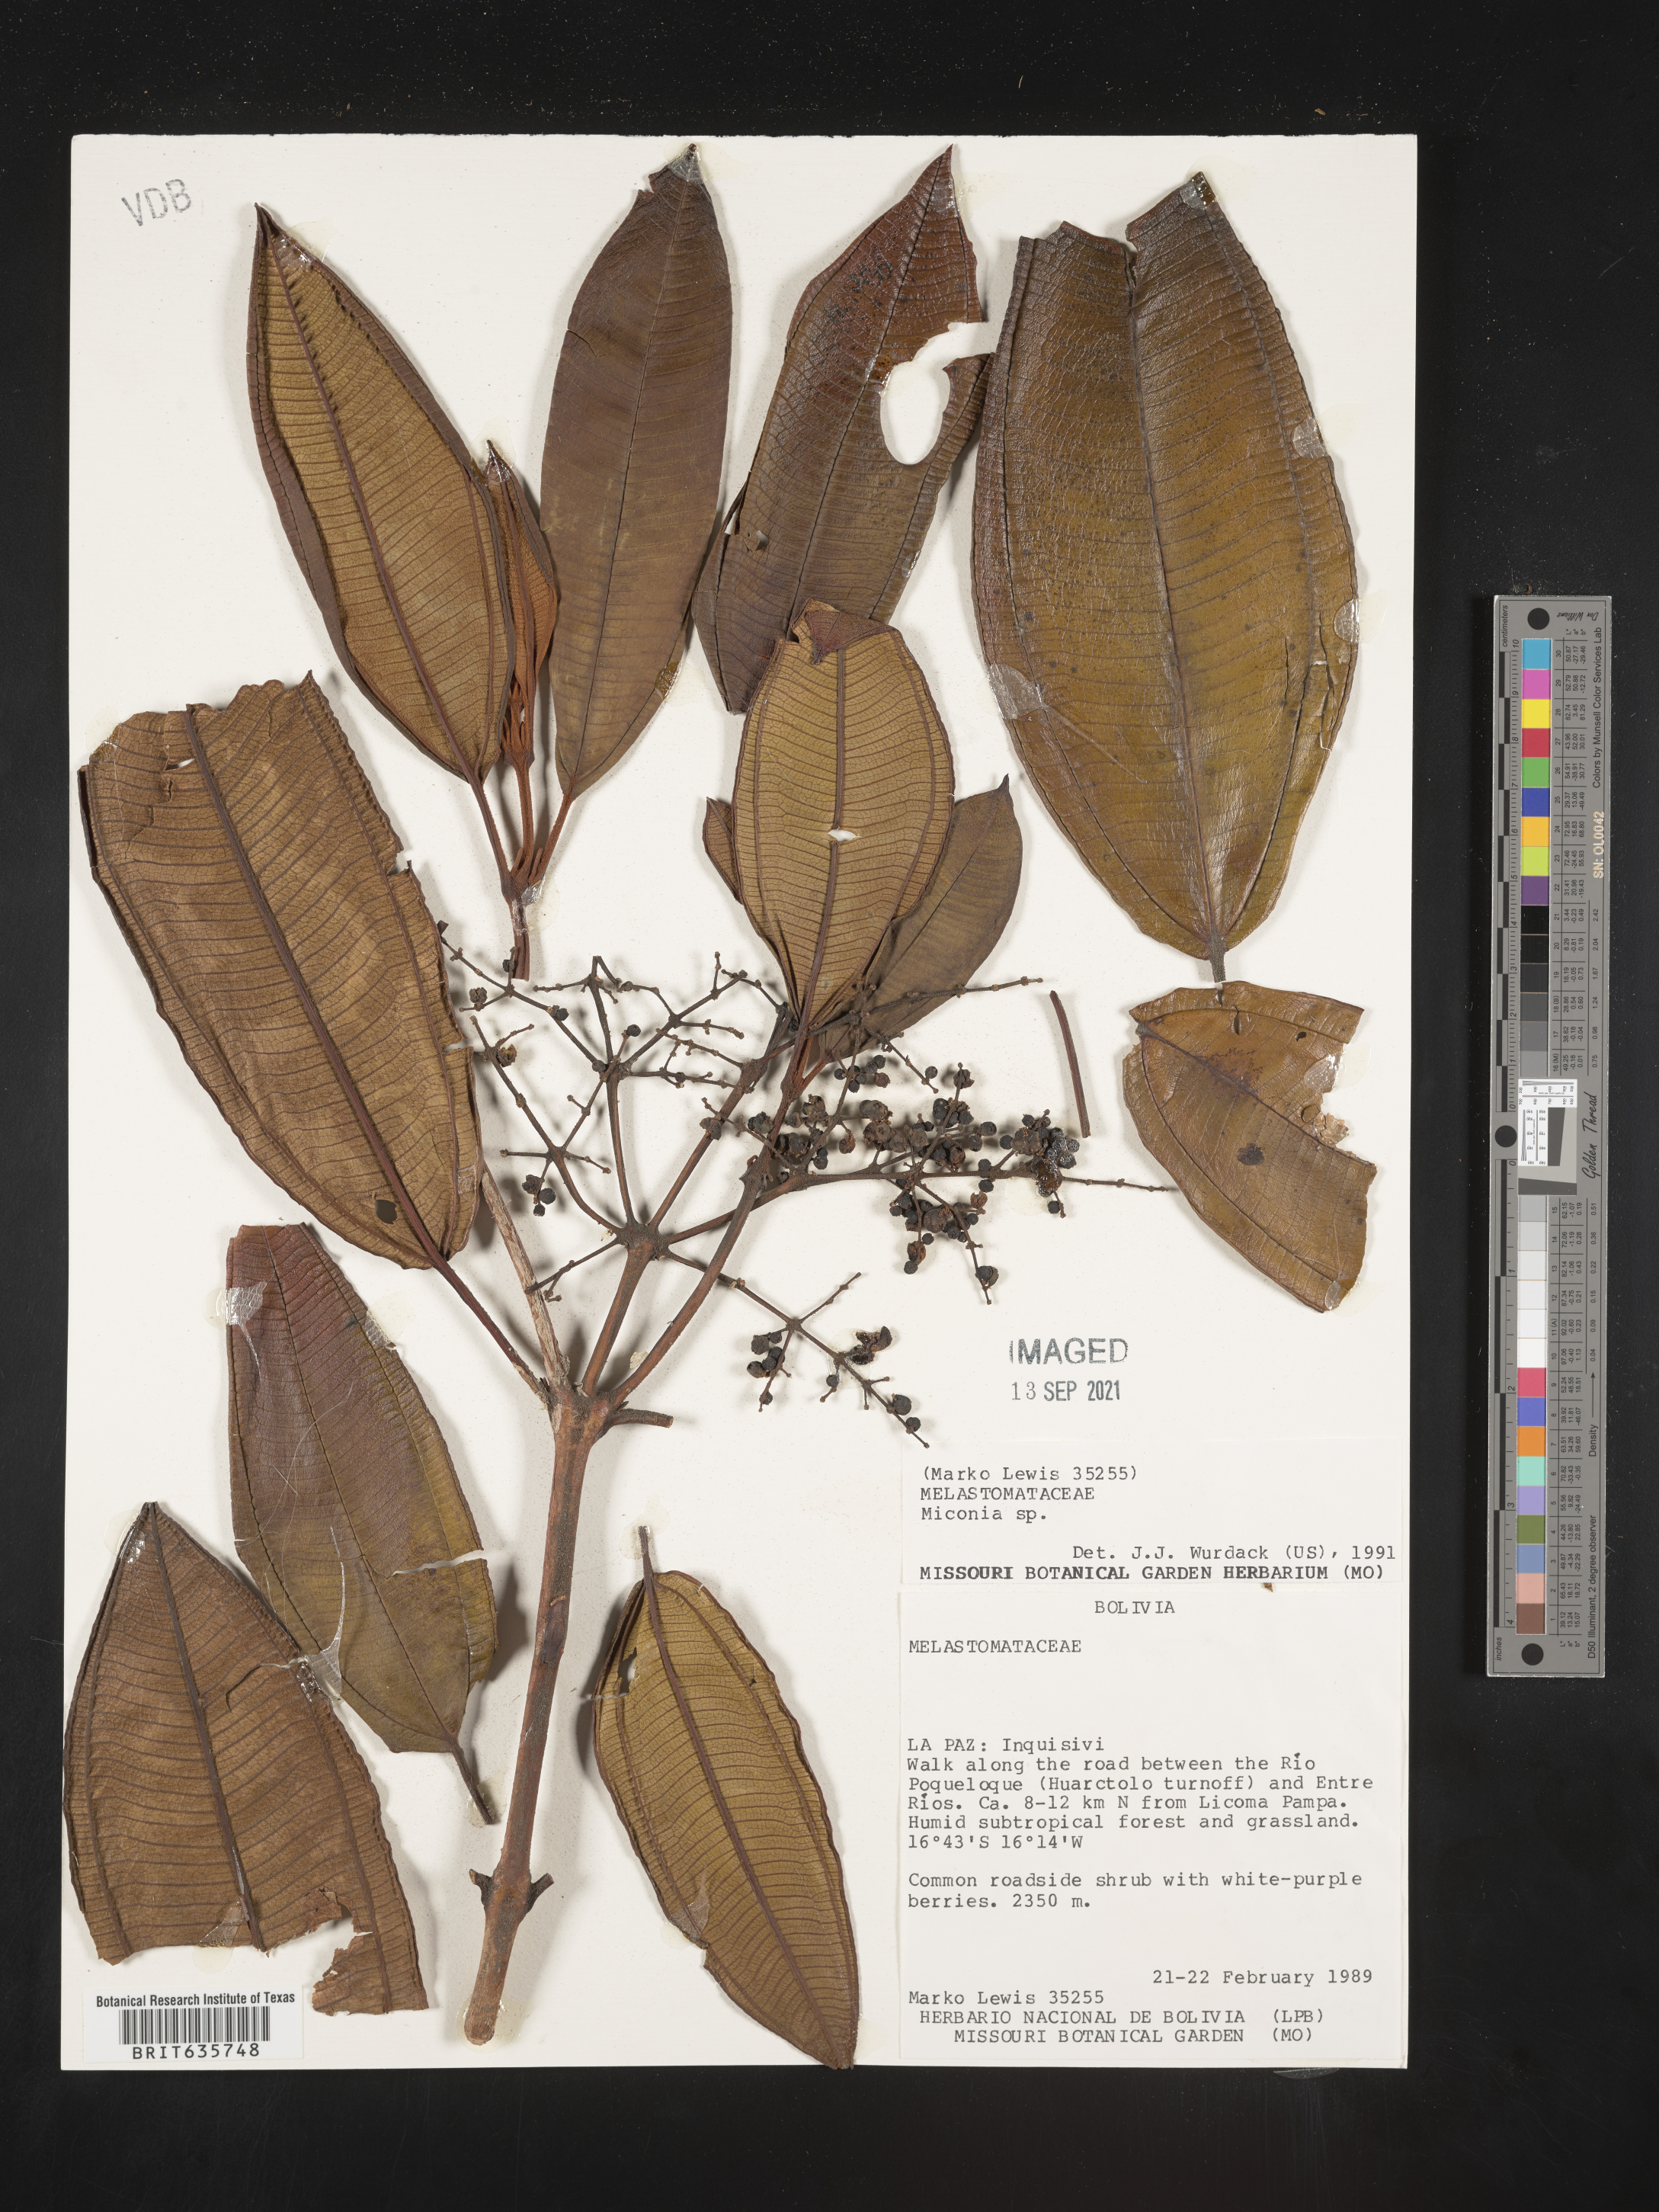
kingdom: Plantae
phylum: Tracheophyta
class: Magnoliopsida
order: Myrtales
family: Melastomataceae
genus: Miconia
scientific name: Miconia
